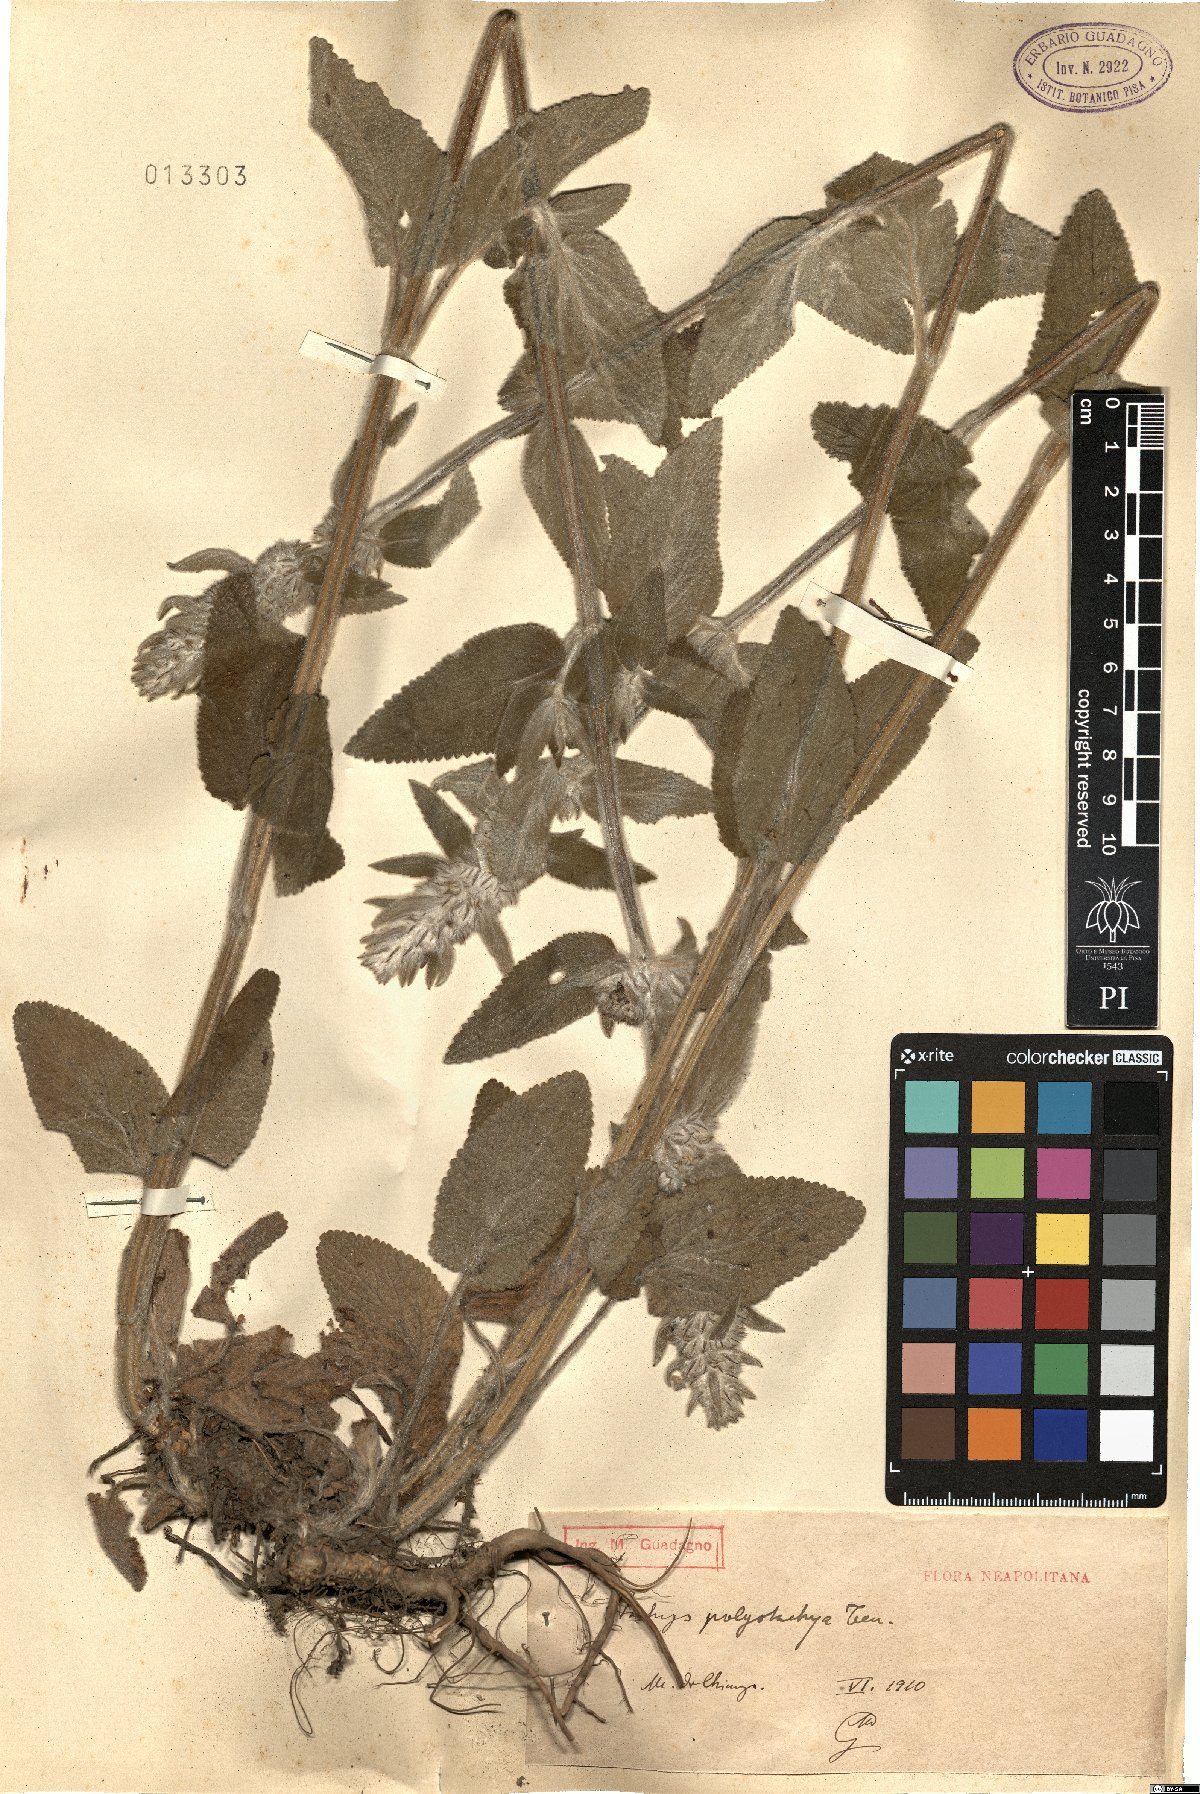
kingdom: Plantae
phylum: Tracheophyta
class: Magnoliopsida
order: Lamiales
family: Lamiaceae
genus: Stachys
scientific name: Stachys germanica
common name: Downy woundwort
